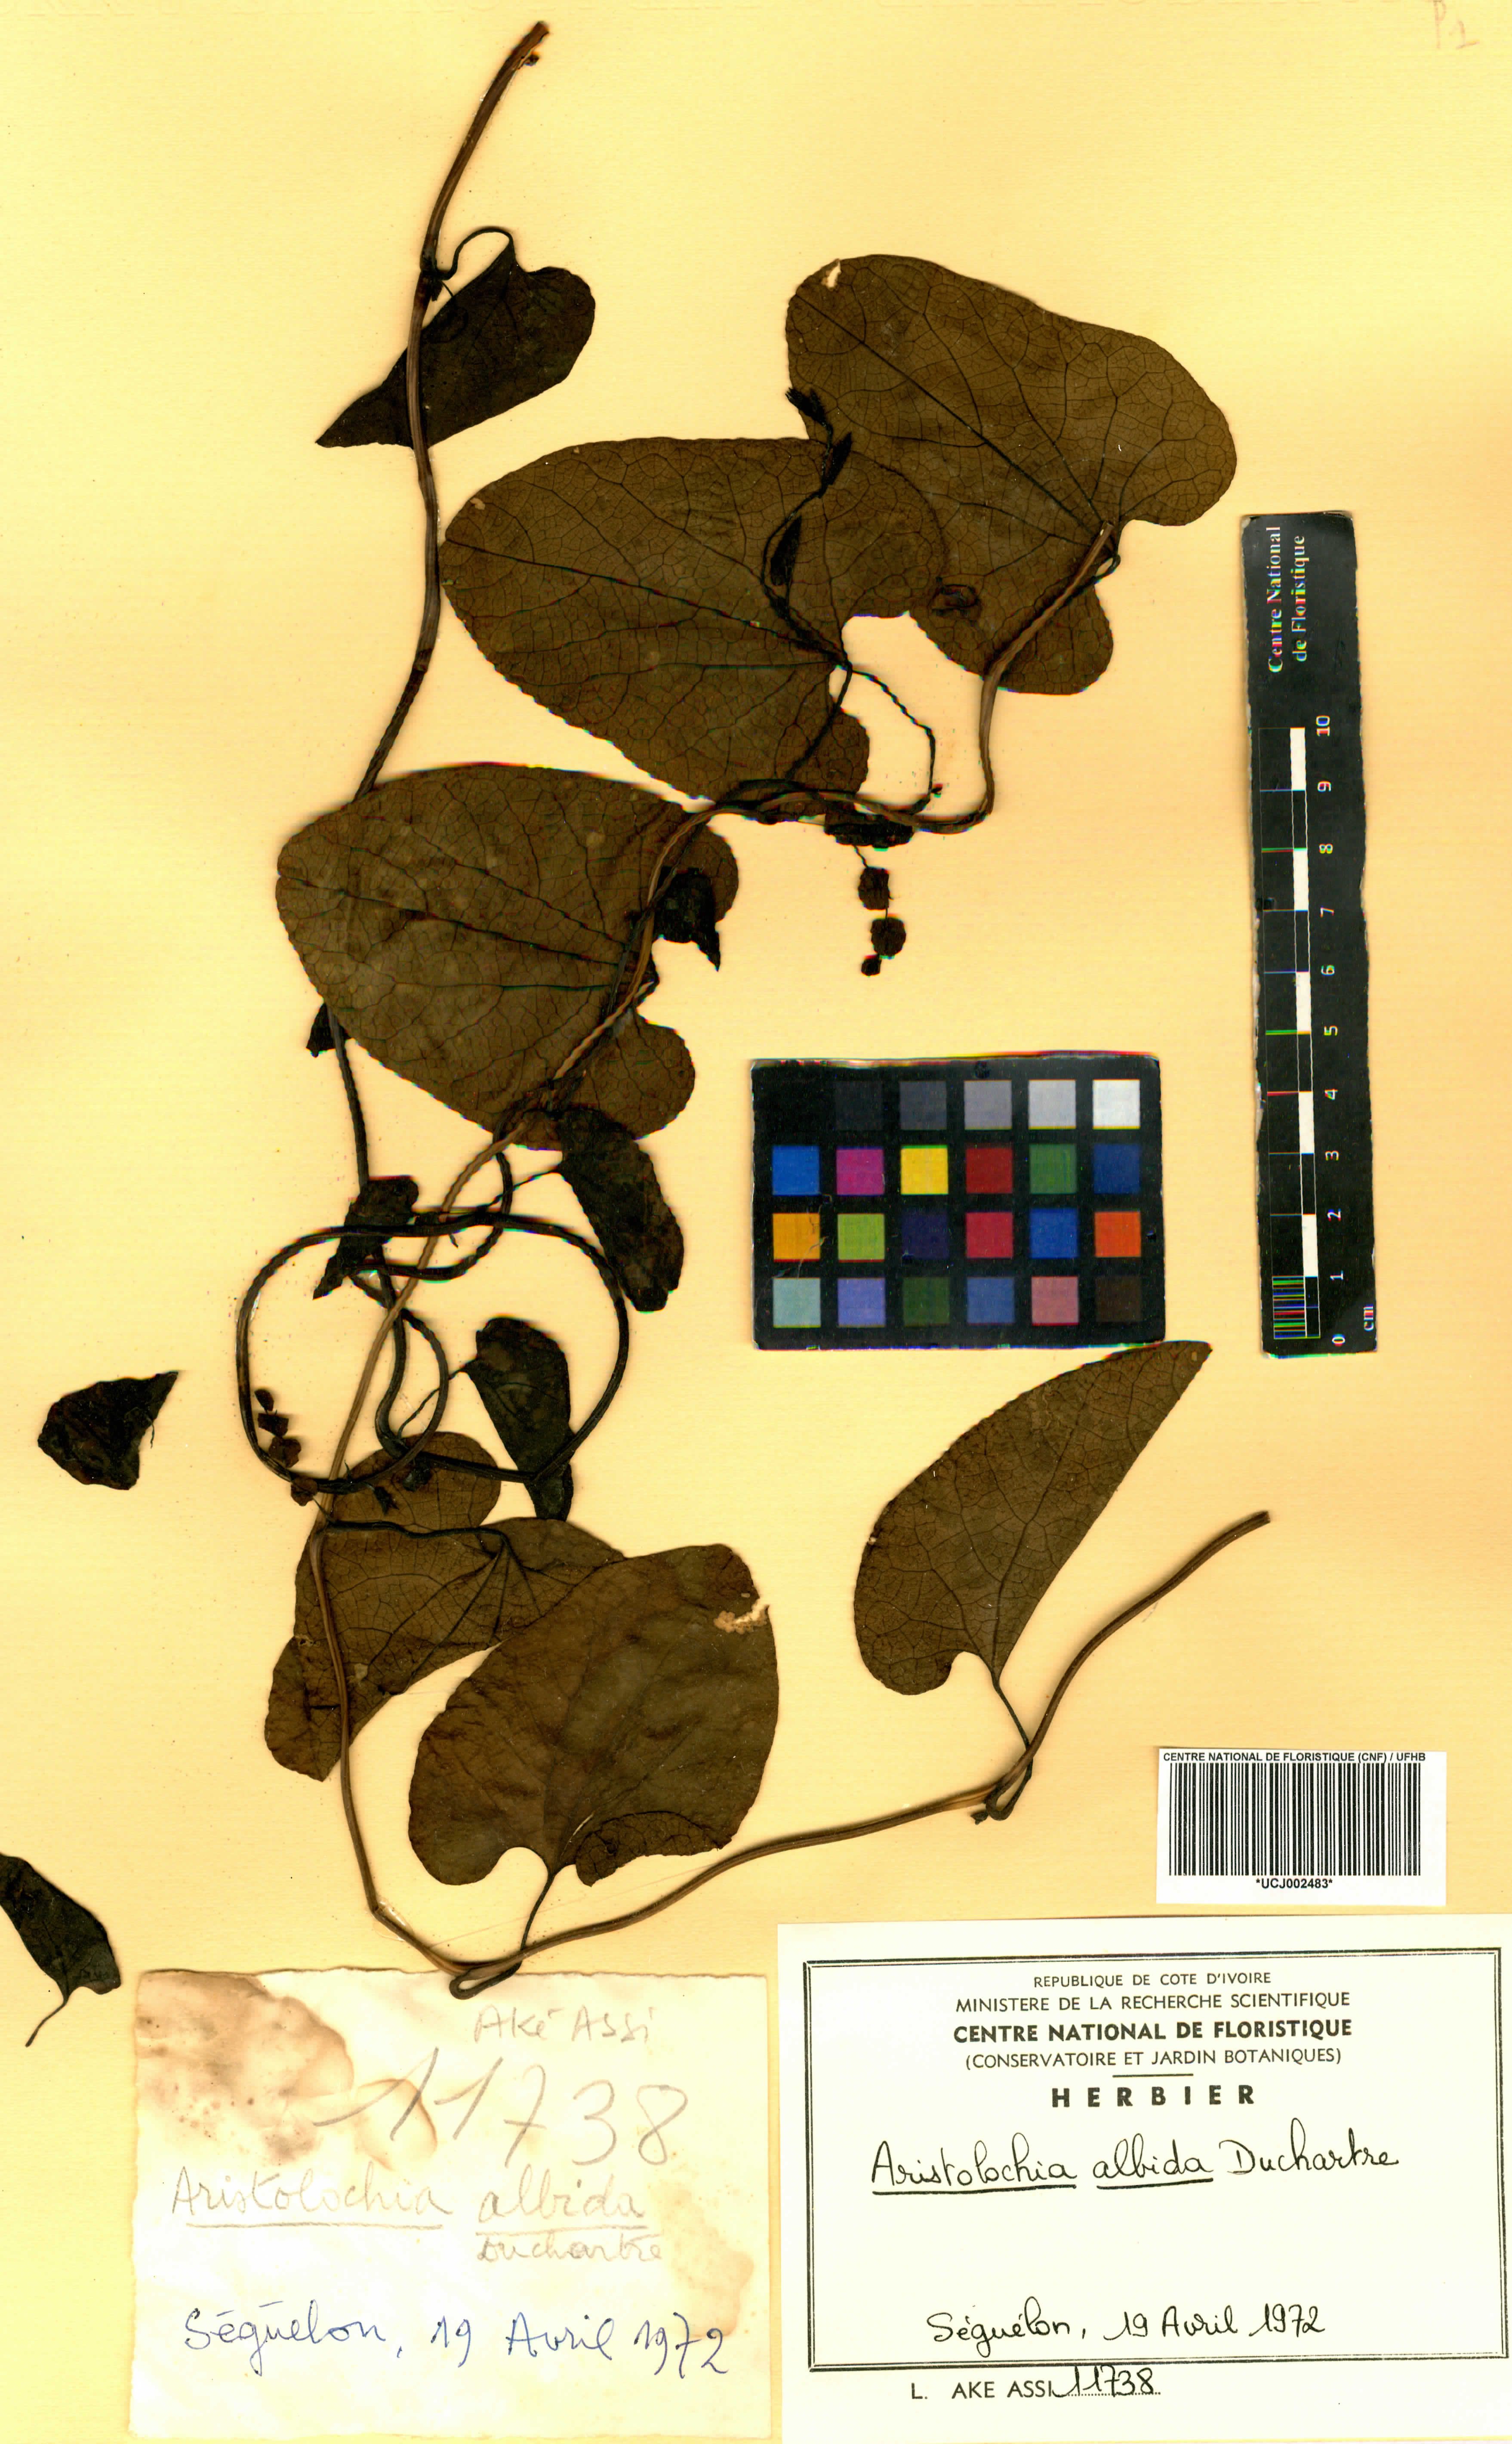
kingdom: Plantae
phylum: Tracheophyta
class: Magnoliopsida
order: Piperales
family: Aristolochiaceae
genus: Aristolochia
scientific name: Aristolochia albida
